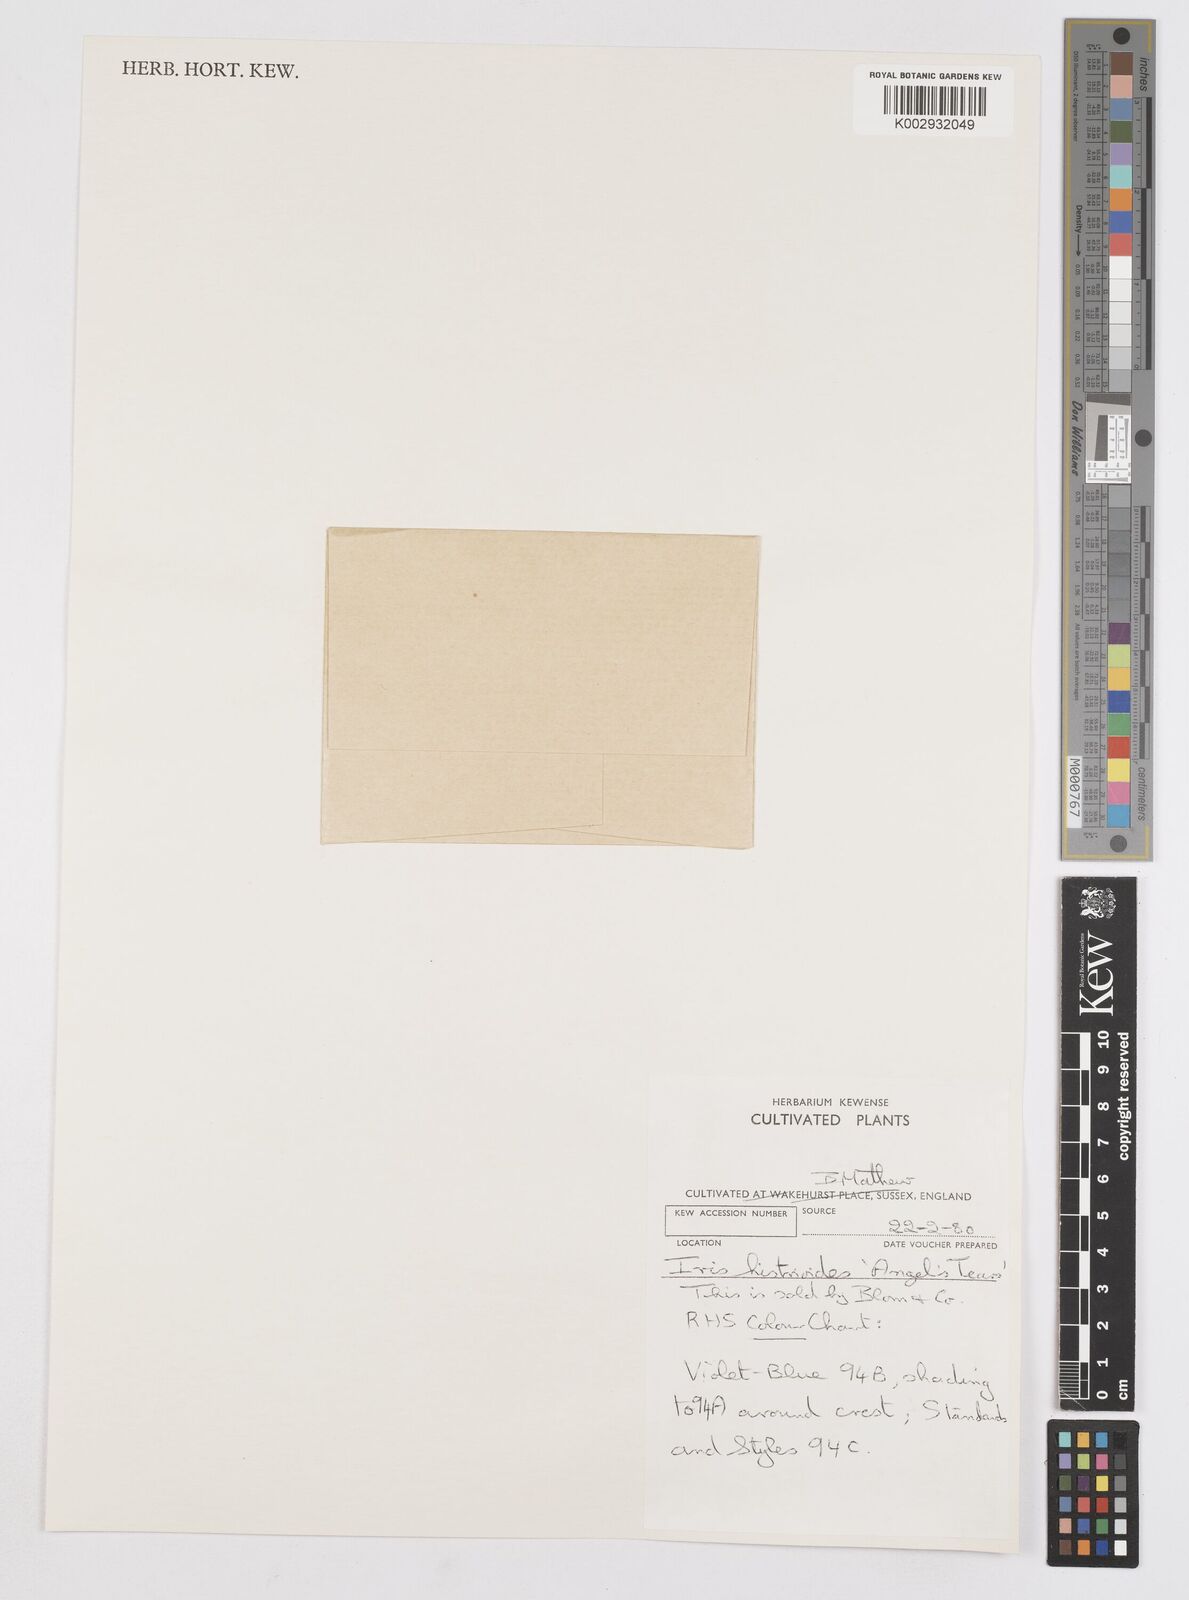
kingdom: Plantae
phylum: Tracheophyta
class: Liliopsida
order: Asparagales
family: Iridaceae
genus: Iris
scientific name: Iris histrioides
